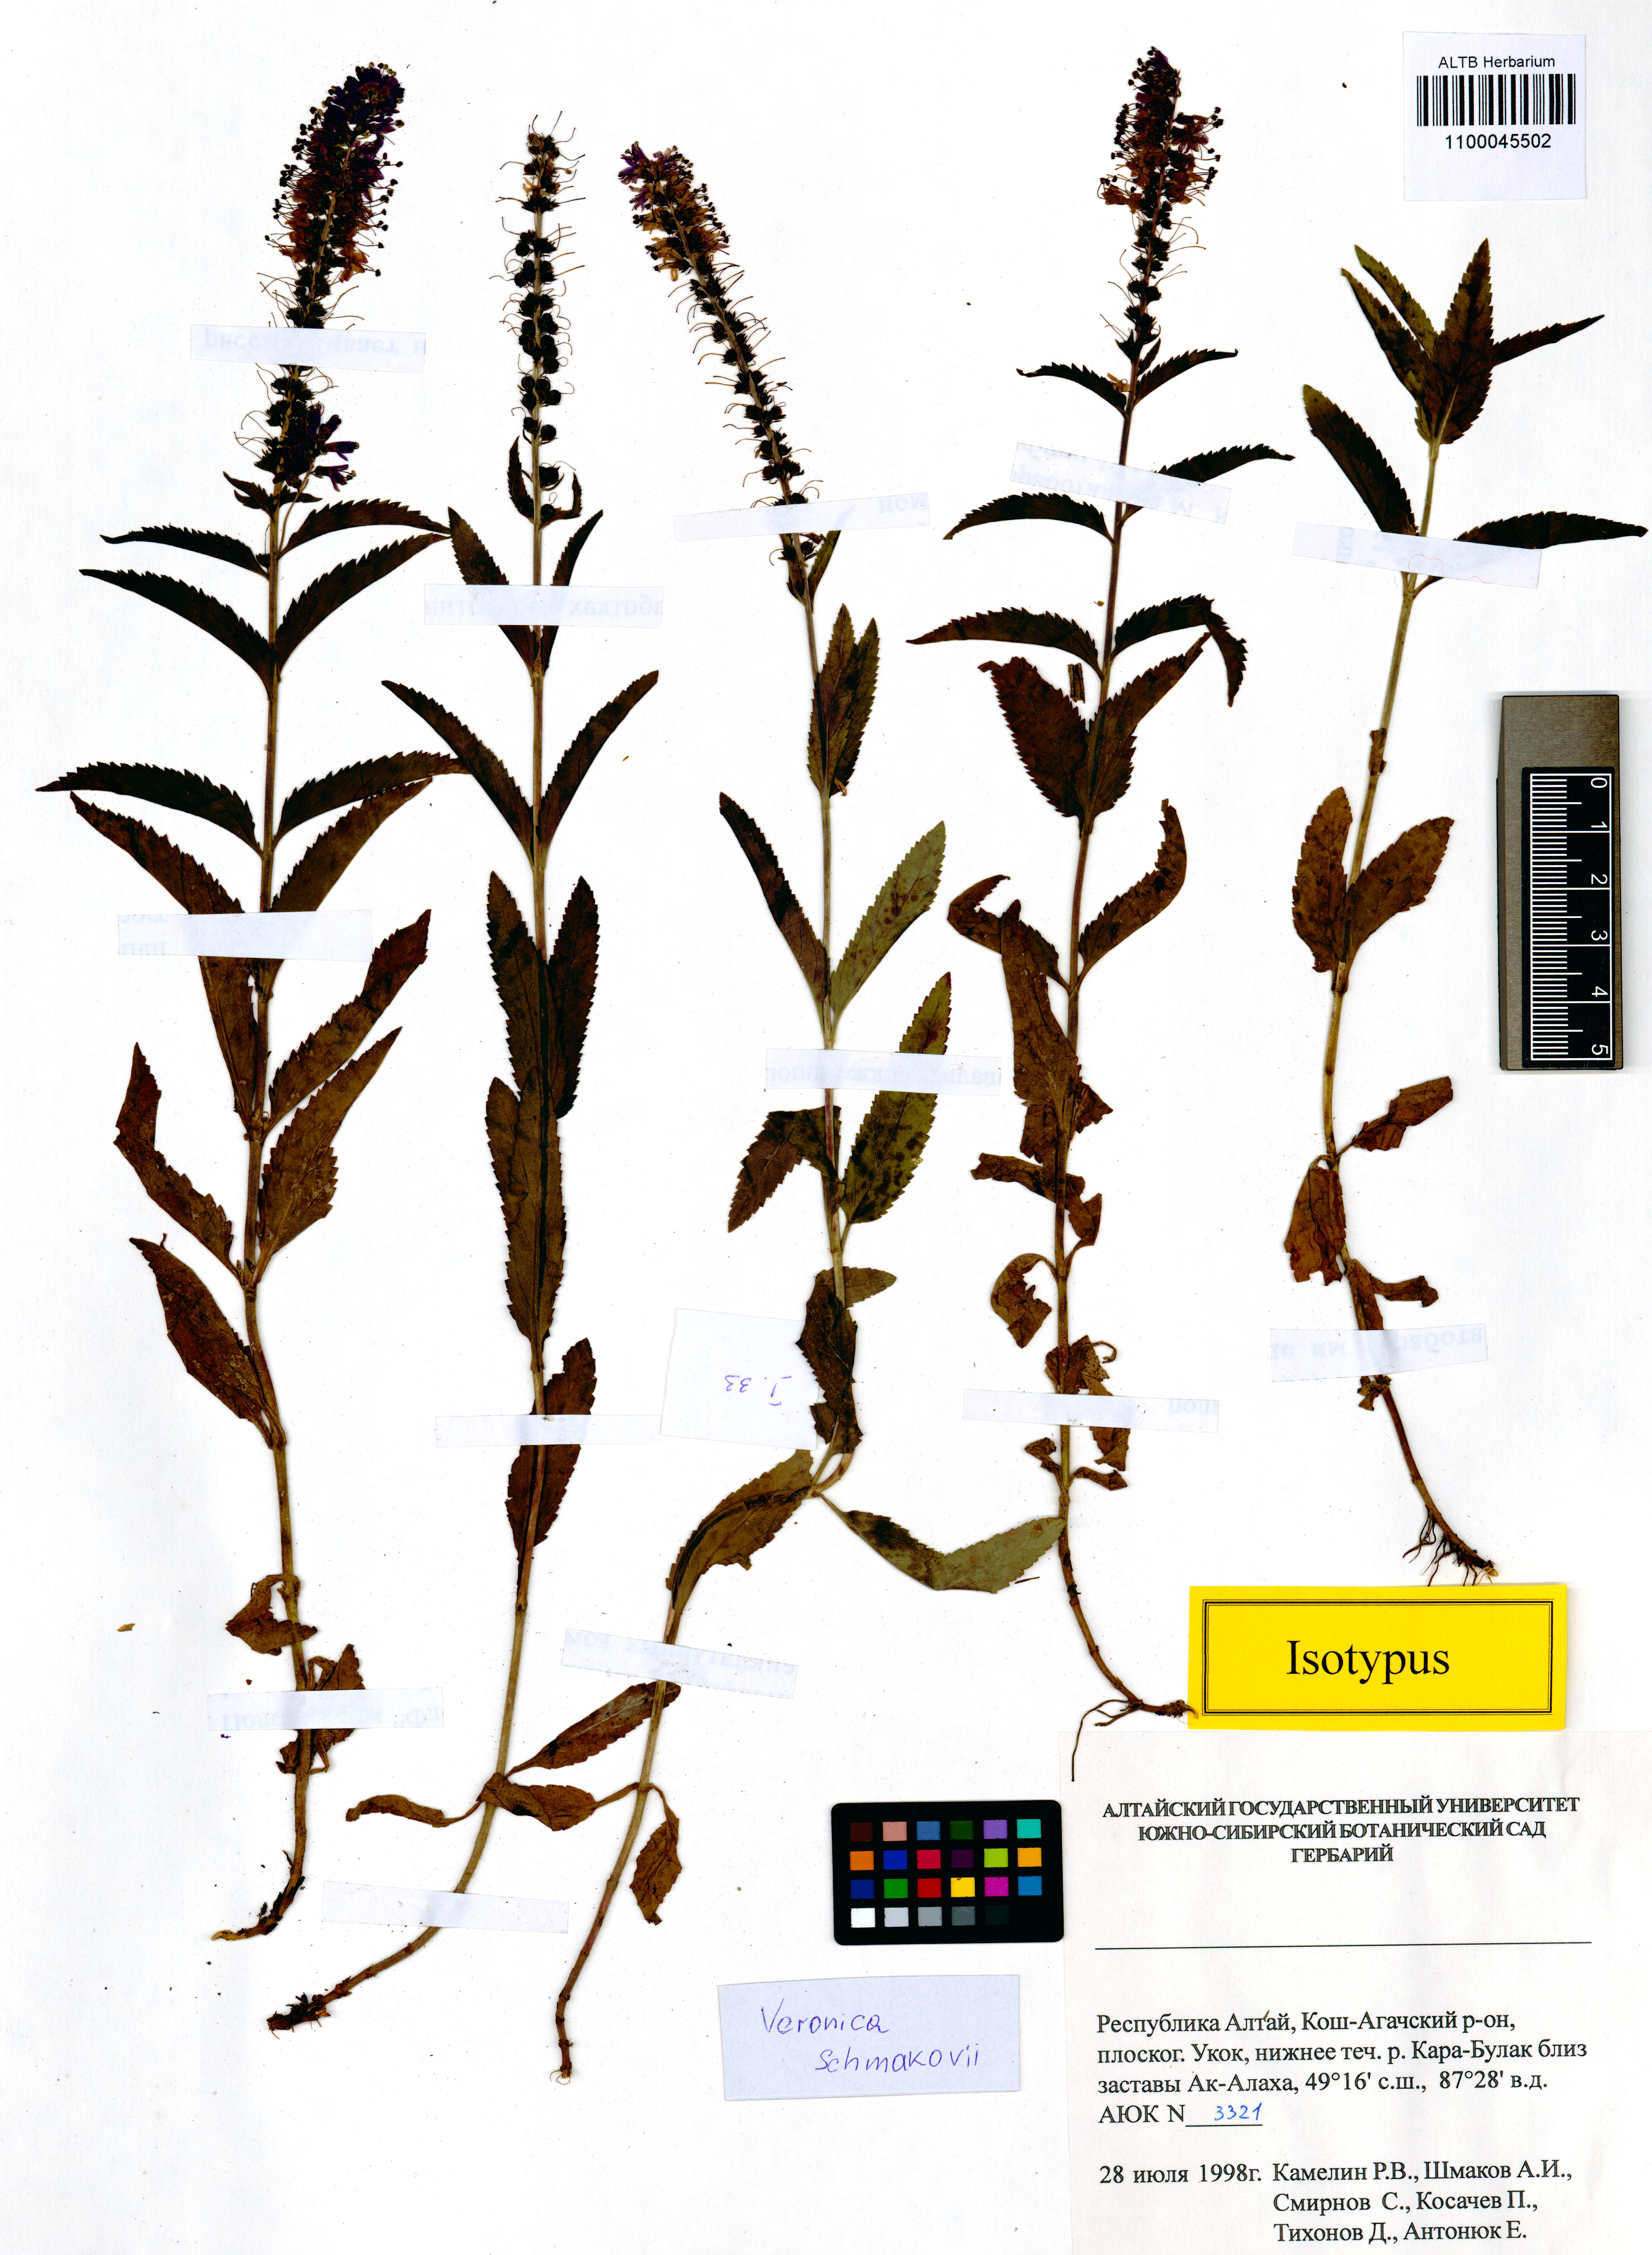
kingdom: Plantae
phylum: Tracheophyta
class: Magnoliopsida
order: Lamiales
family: Plantaginaceae
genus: Veronica
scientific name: Veronica schmakovii
